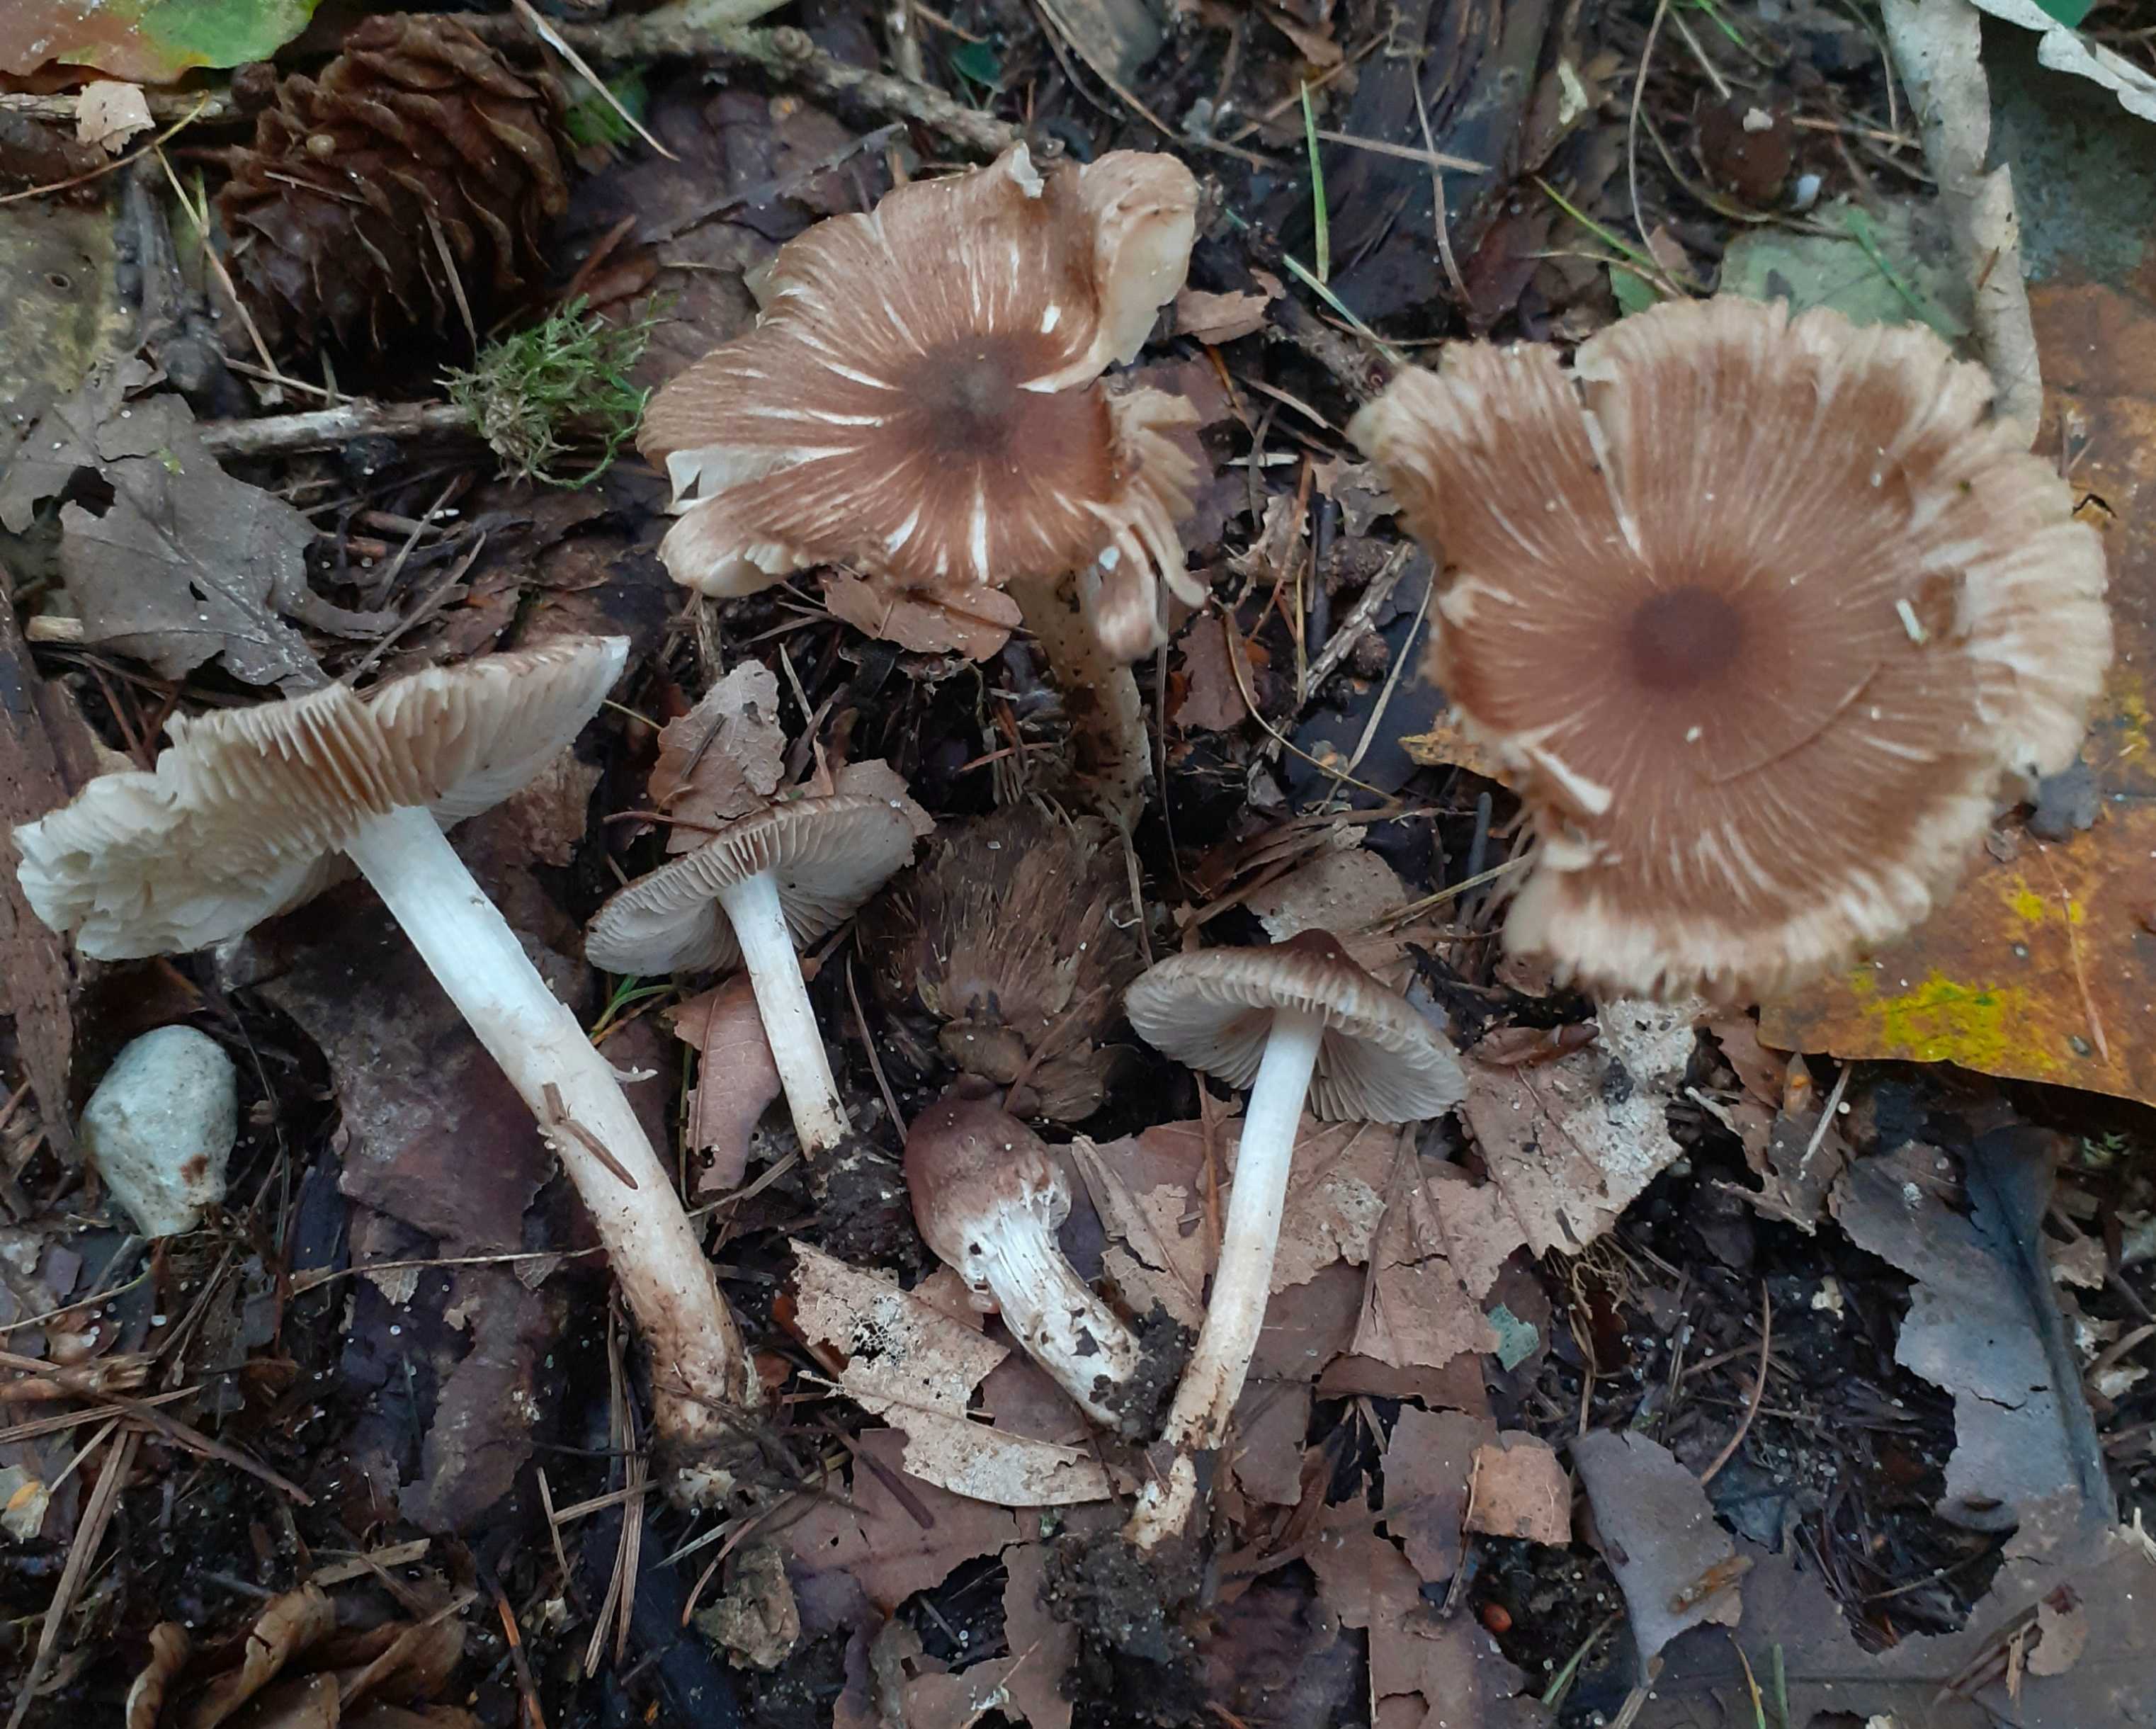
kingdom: Fungi
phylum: Basidiomycota
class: Agaricomycetes
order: Agaricales
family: Inocybaceae
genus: Inocybe
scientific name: Inocybe
